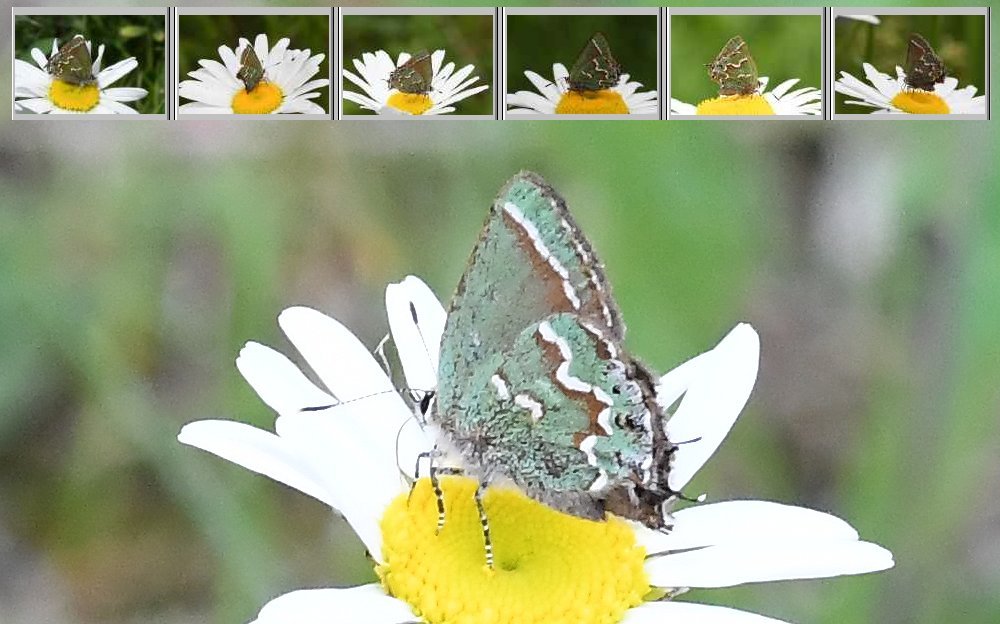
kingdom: Animalia
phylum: Arthropoda
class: Insecta
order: Lepidoptera
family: Lycaenidae
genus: Mitoura
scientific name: Mitoura gryneus
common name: Juniper Hairstreak
